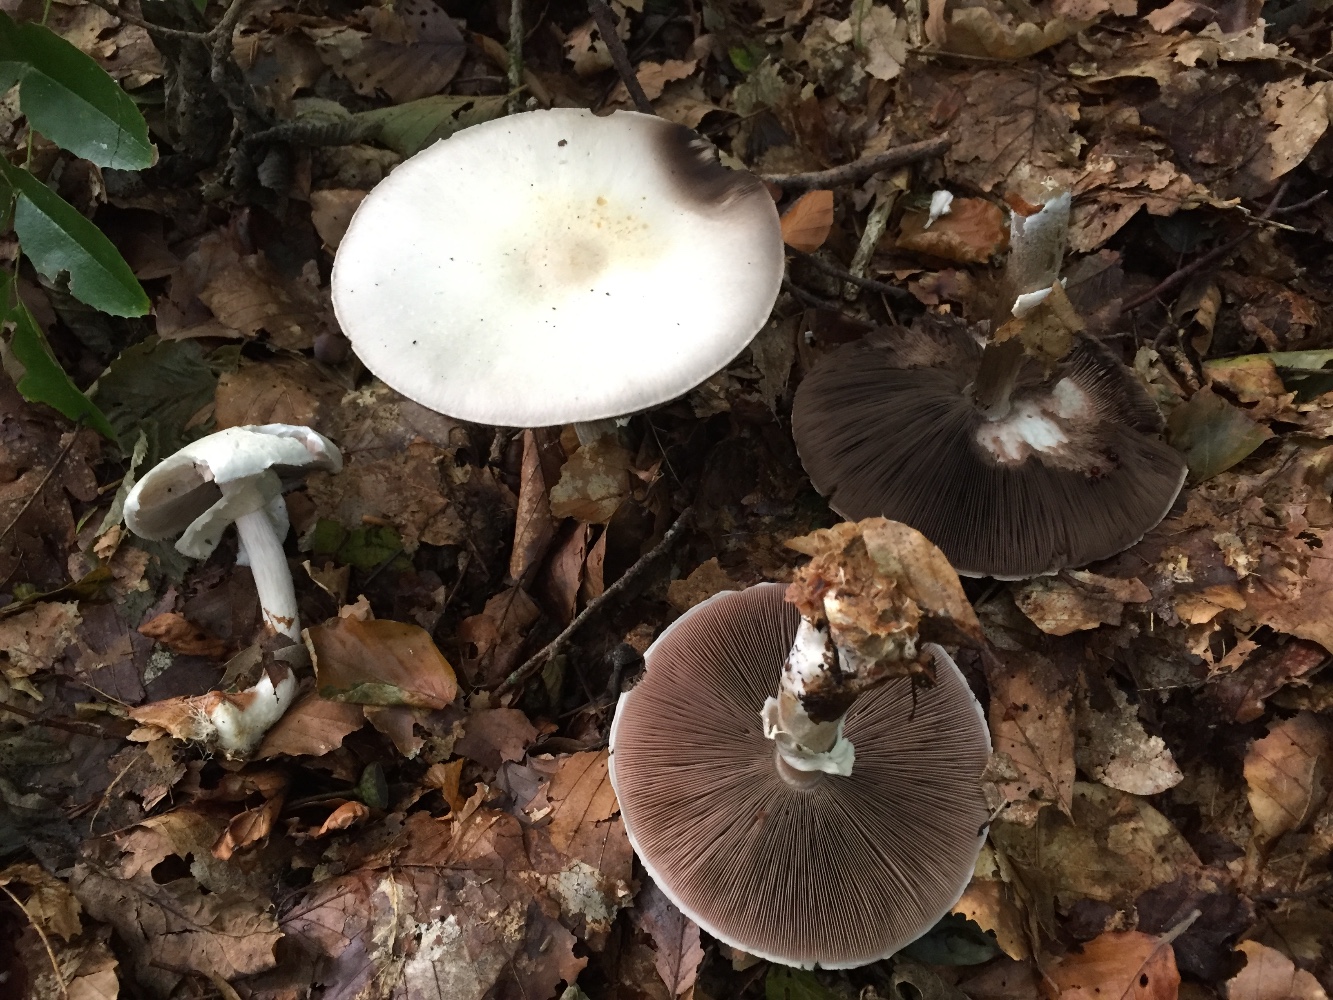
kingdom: Fungi
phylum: Basidiomycota
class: Agaricomycetes
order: Agaricales
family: Agaricaceae
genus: Agaricus
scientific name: Agaricus sylvicola
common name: gulhvid champignon
